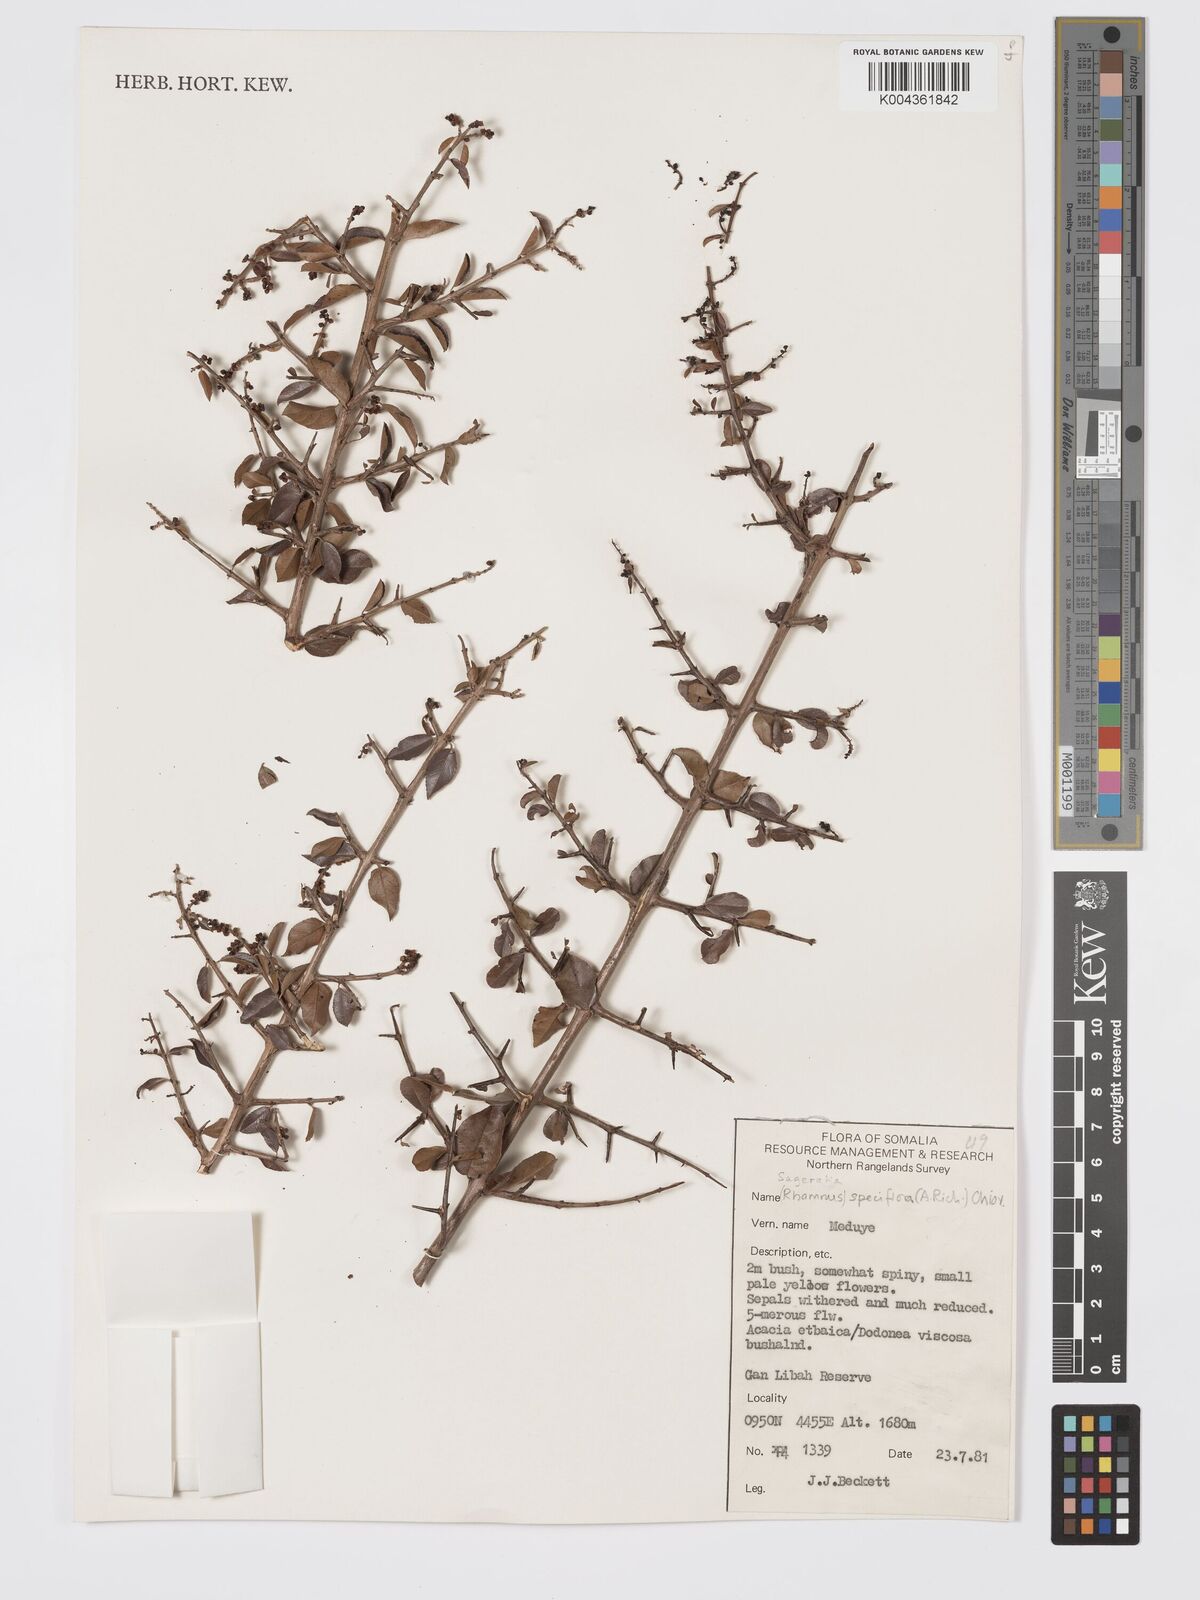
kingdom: Plantae
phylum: Tracheophyta
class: Magnoliopsida
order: Rosales
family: Rhamnaceae
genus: Sageretia
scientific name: Sageretia thea
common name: Pauper's-tea
